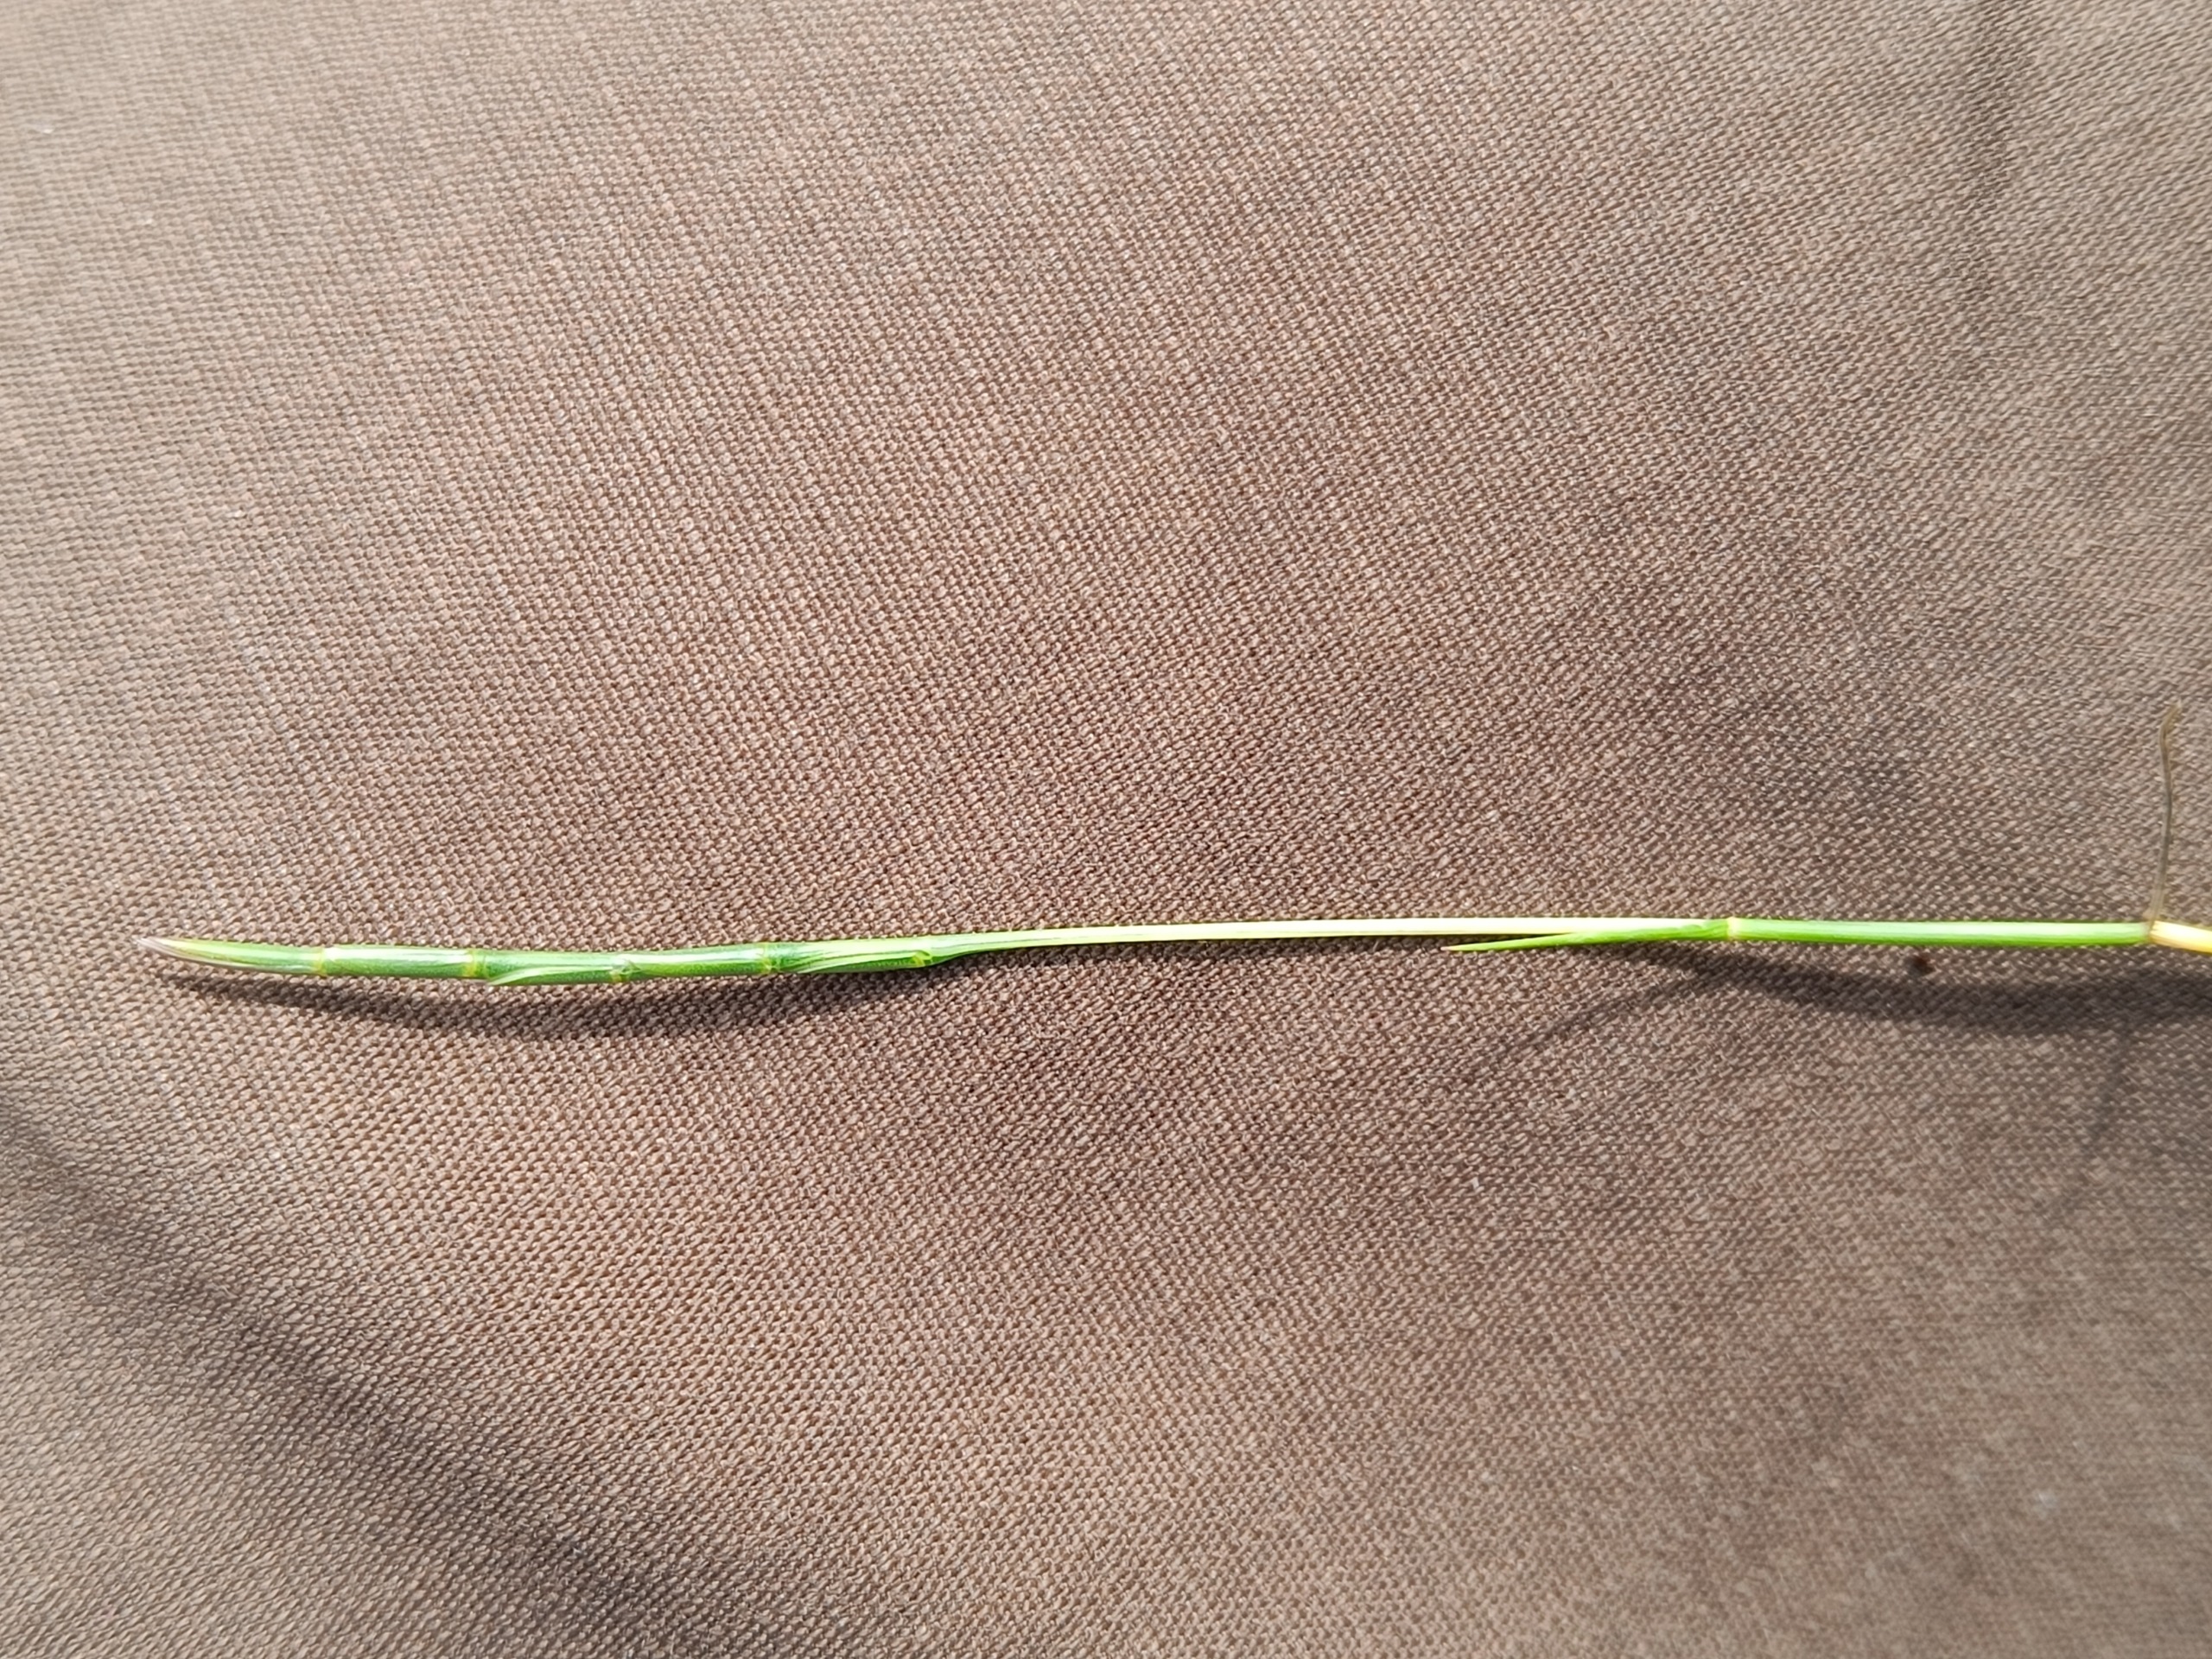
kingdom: Plantae
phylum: Tracheophyta
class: Liliopsida
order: Poales
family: Poaceae
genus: Parapholis
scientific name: Parapholis strigosa
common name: Spidshale
